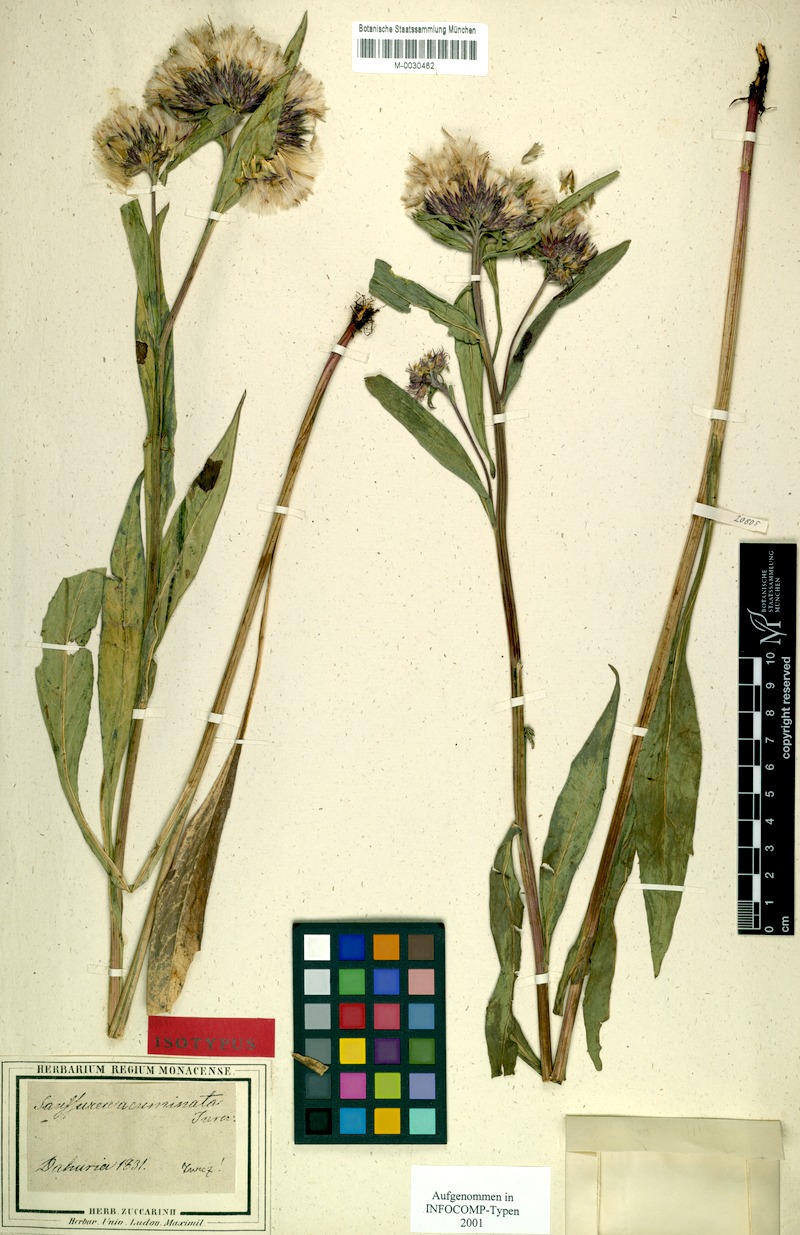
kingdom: Plantae
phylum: Tracheophyta
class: Magnoliopsida
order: Asterales
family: Asteraceae
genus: Saussurea
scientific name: Saussurea acuminata
